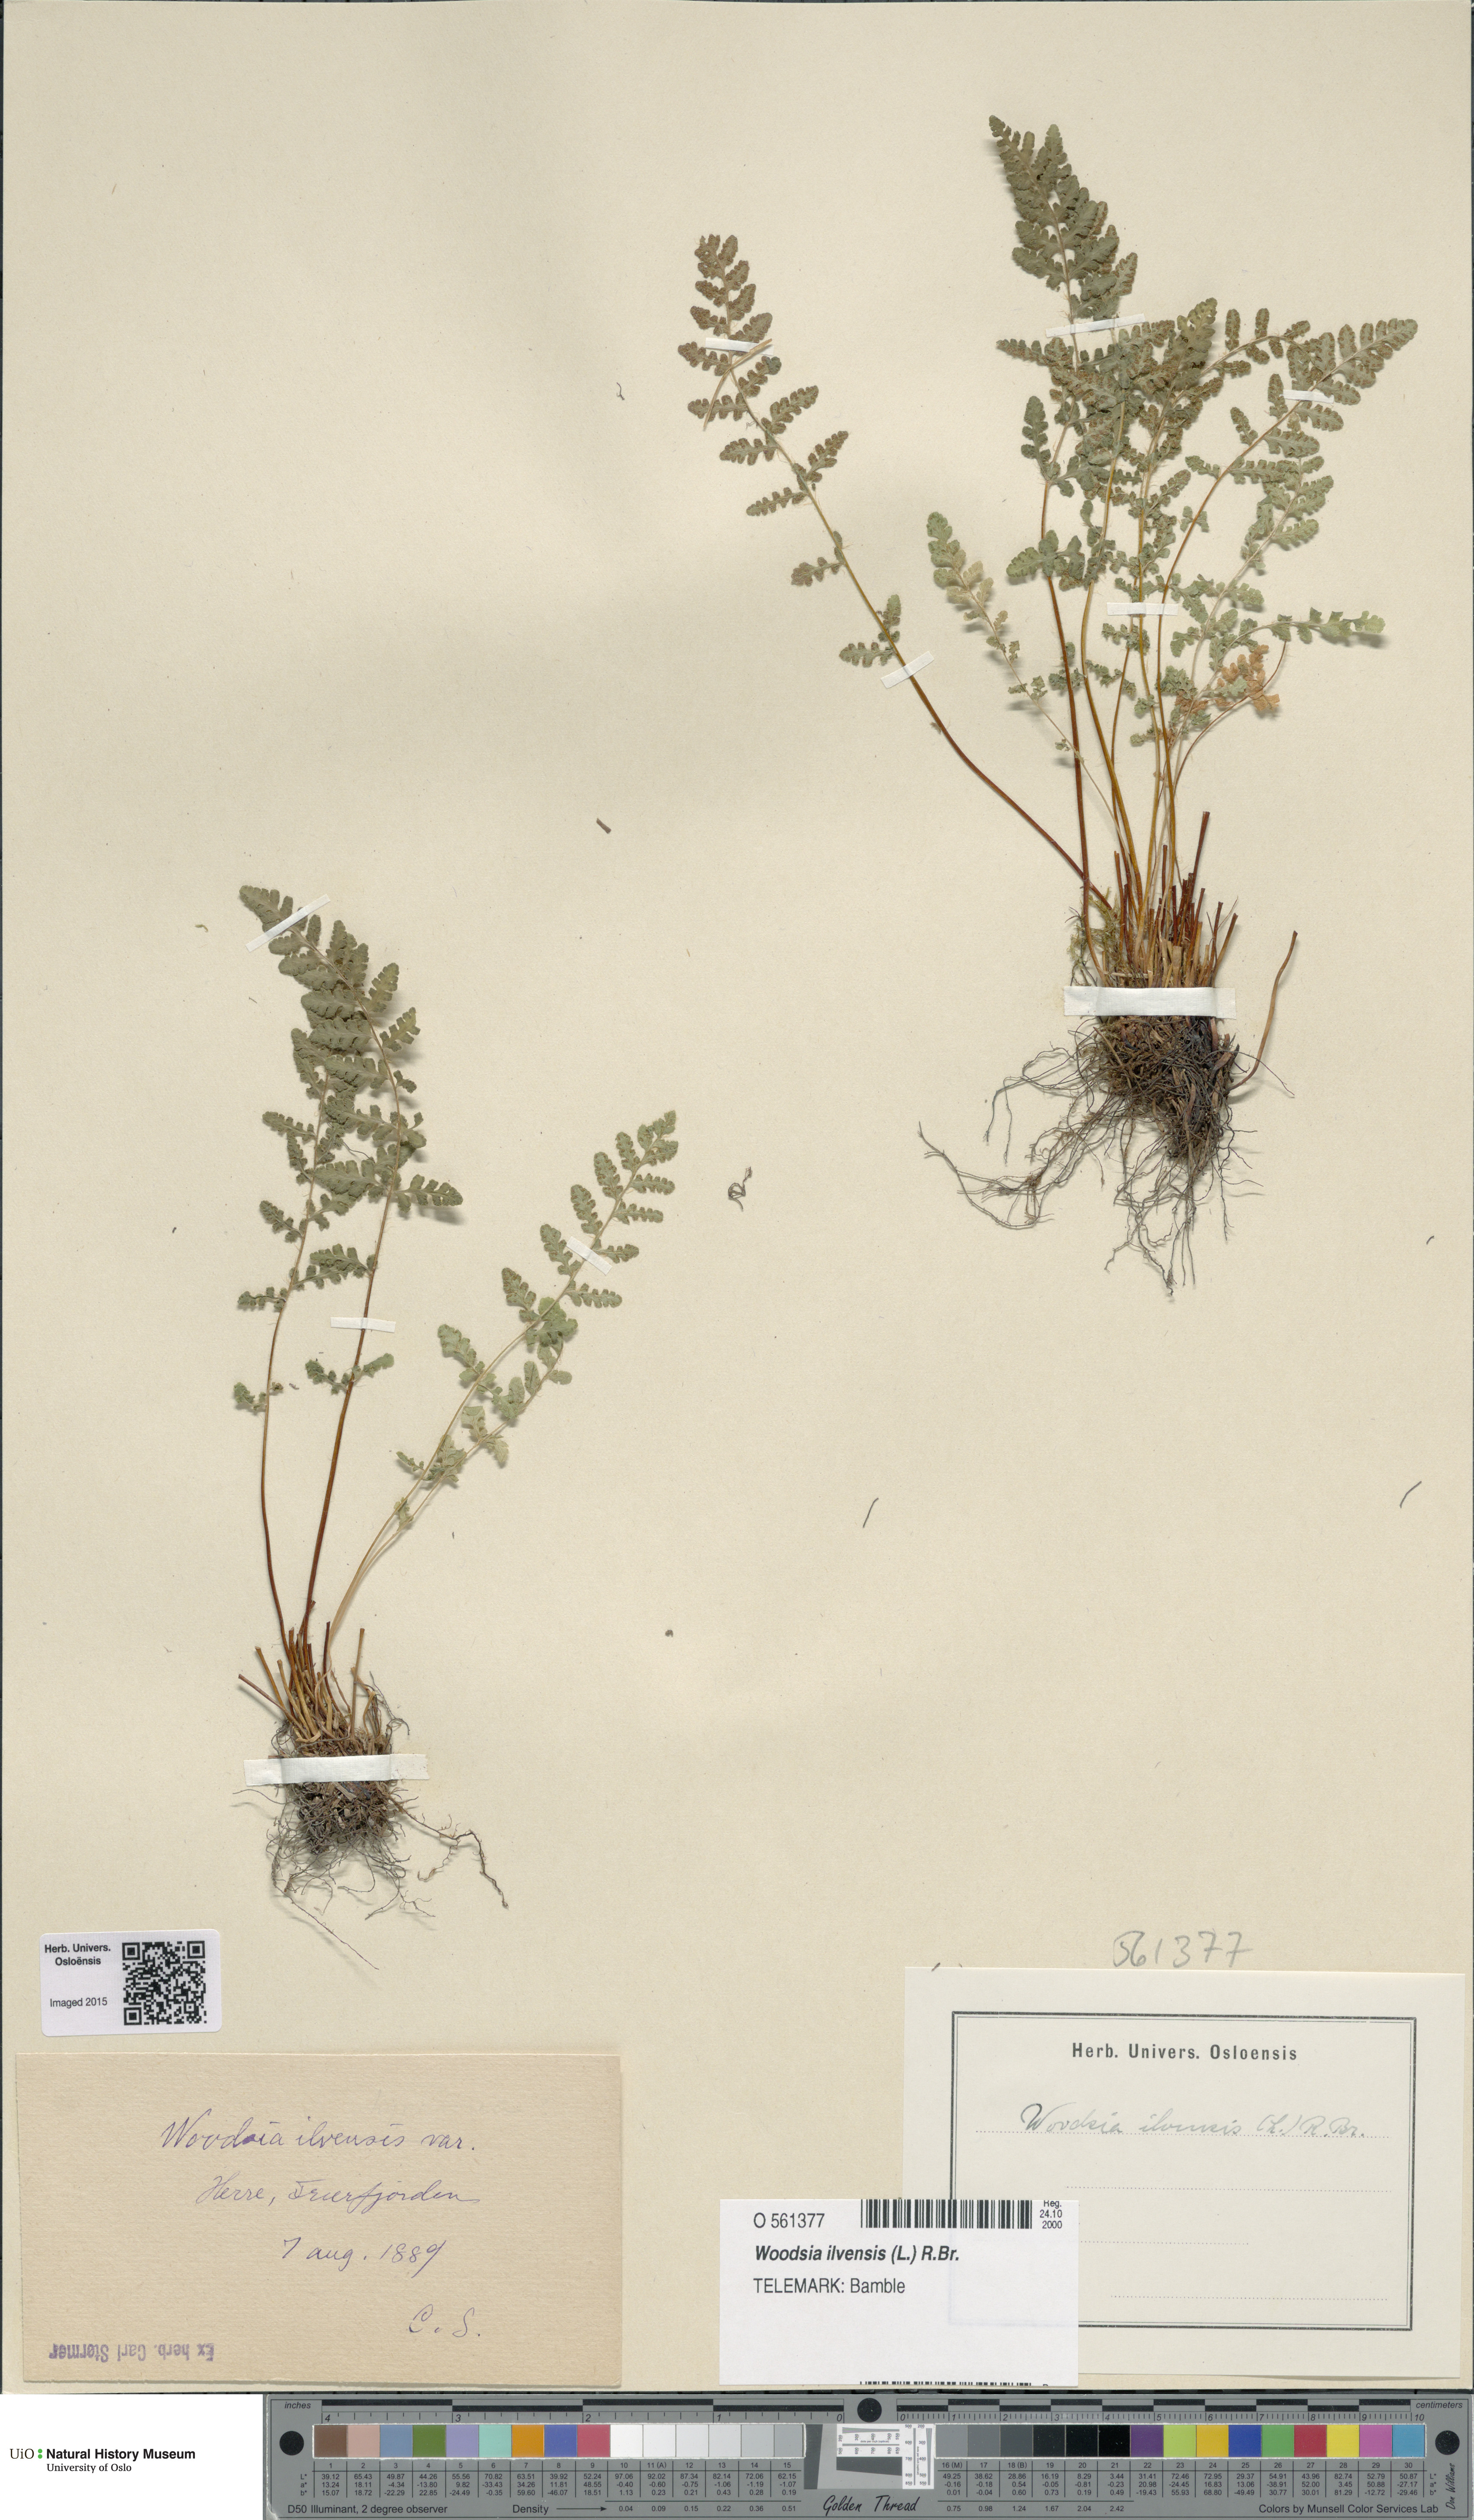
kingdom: Plantae
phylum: Tracheophyta
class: Polypodiopsida
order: Polypodiales
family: Woodsiaceae
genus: Woodsia
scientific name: Woodsia ilvensis
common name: Fragrant woodsia
